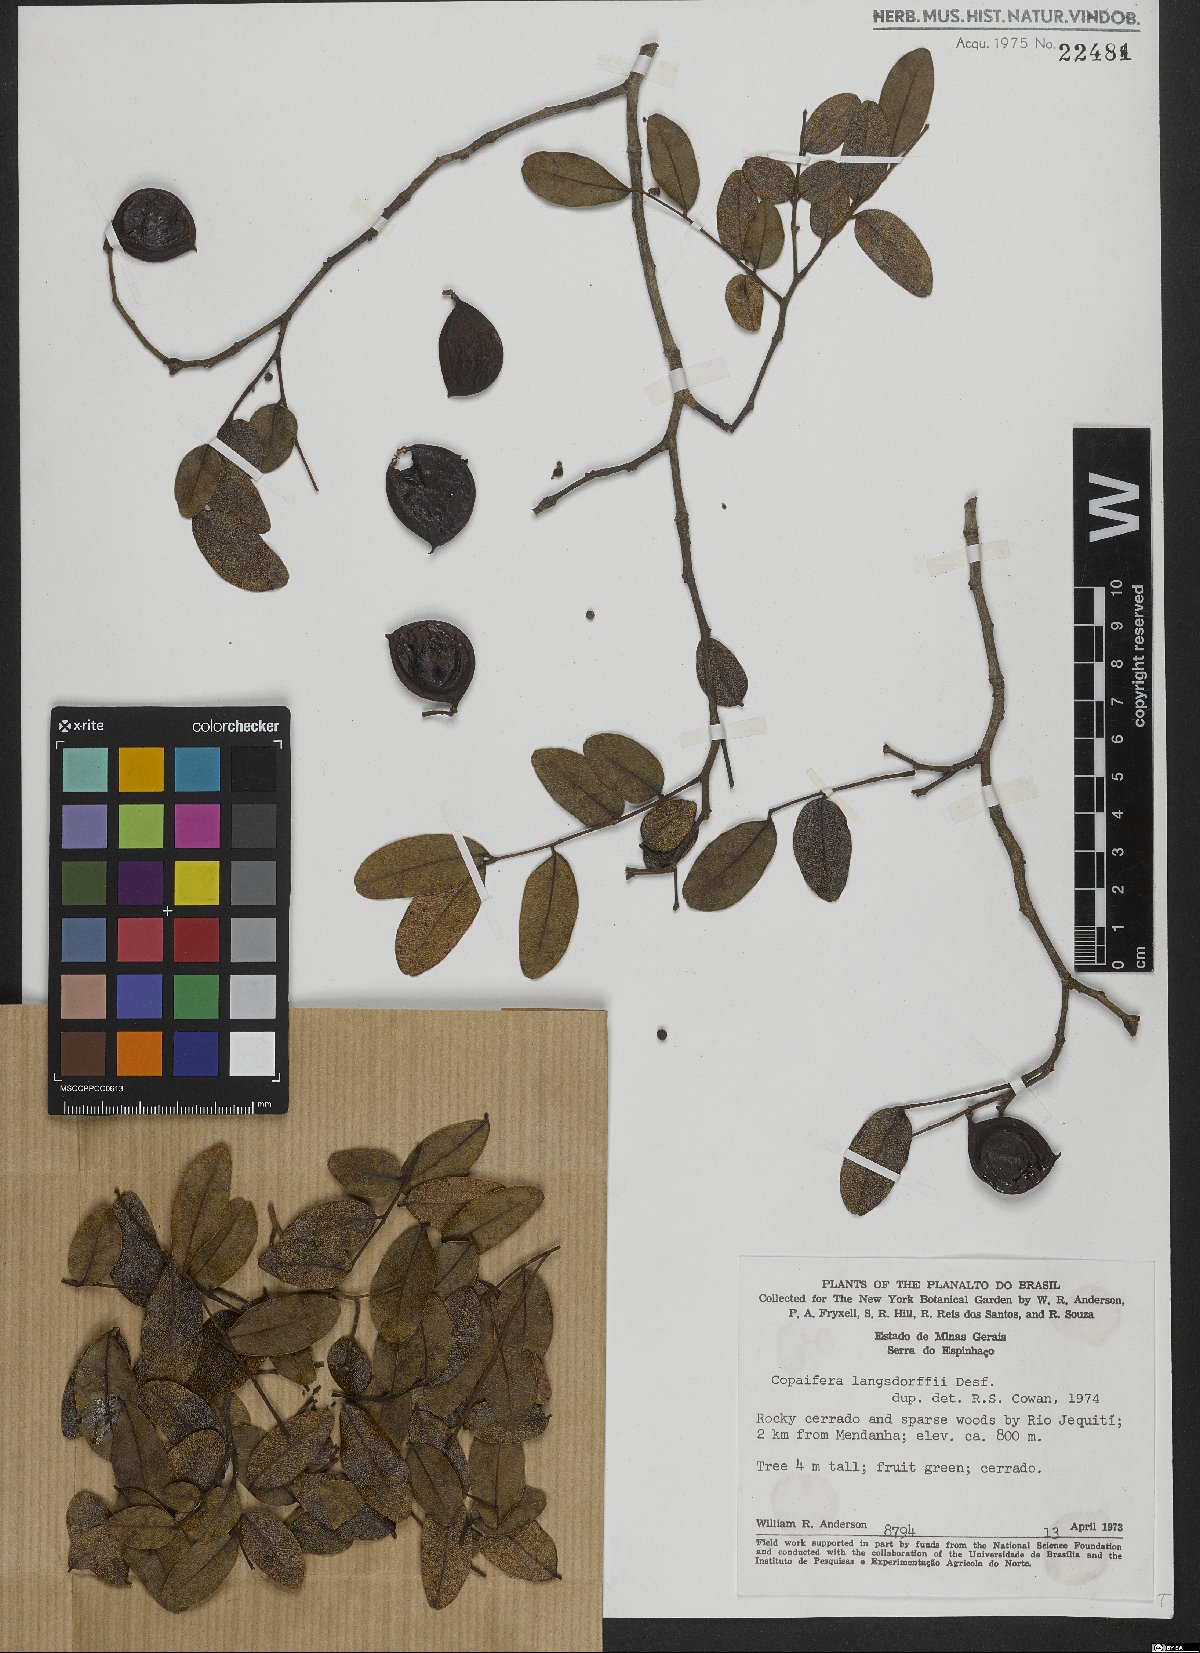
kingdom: Plantae
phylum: Tracheophyta
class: Magnoliopsida
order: Fabales
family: Fabaceae
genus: Copaifera
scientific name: Copaifera langsdorffii
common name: Brazilian diesel tree
